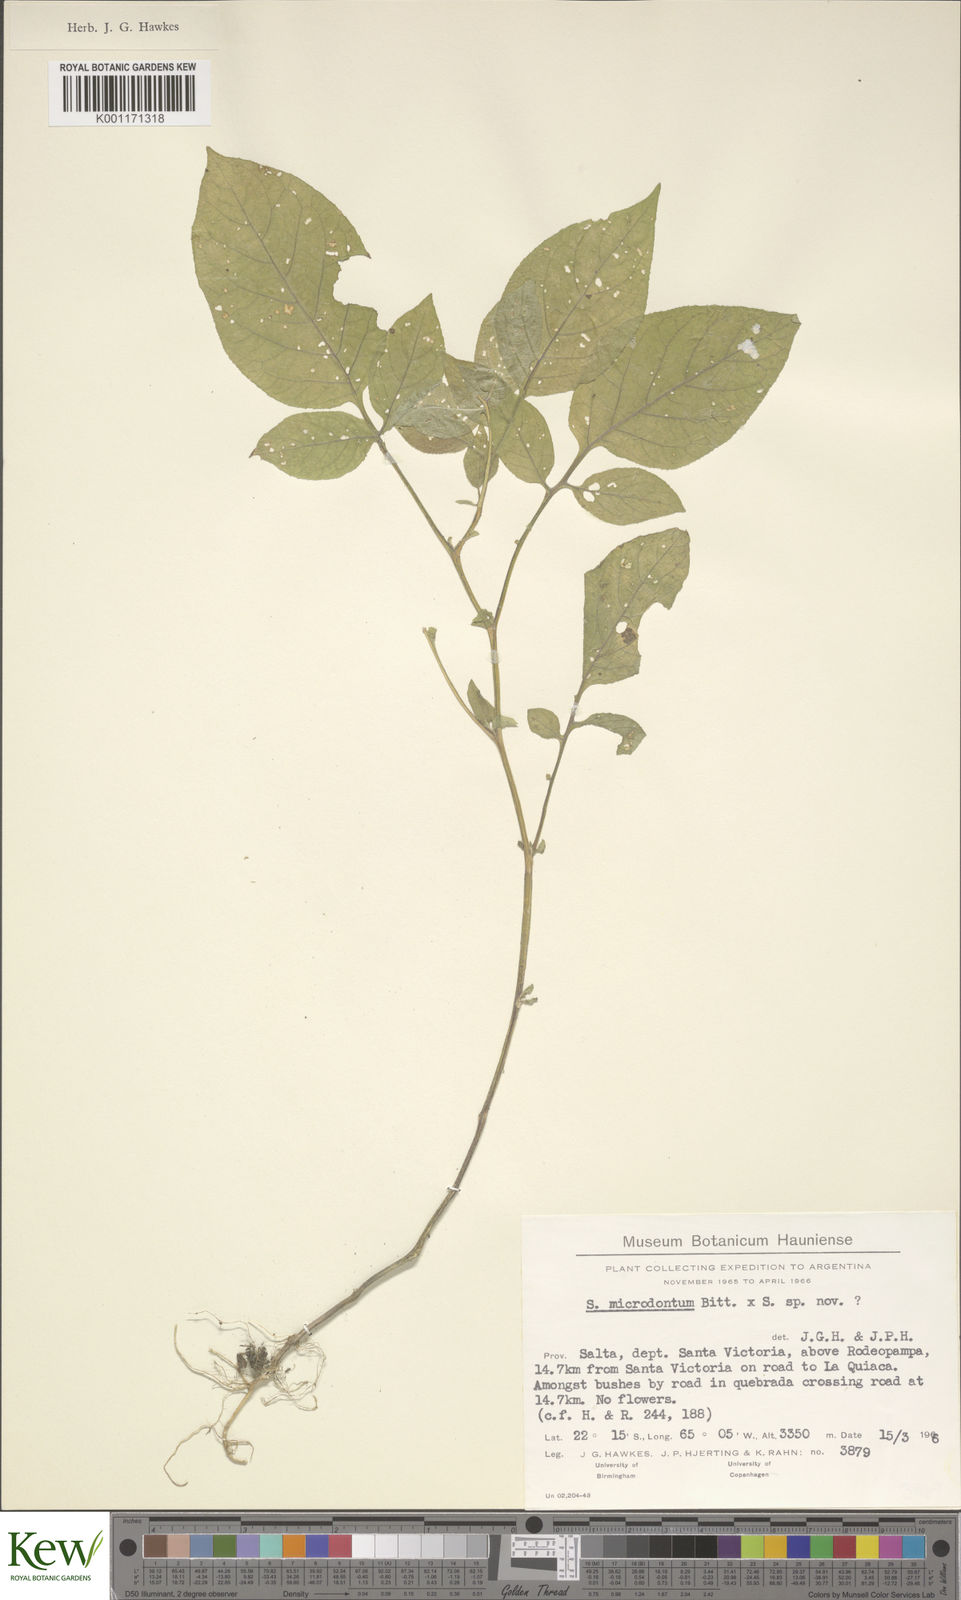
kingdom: Plantae
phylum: Tracheophyta
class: Magnoliopsida
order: Solanales
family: Solanaceae
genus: Solanum
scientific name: Solanum microdontum
